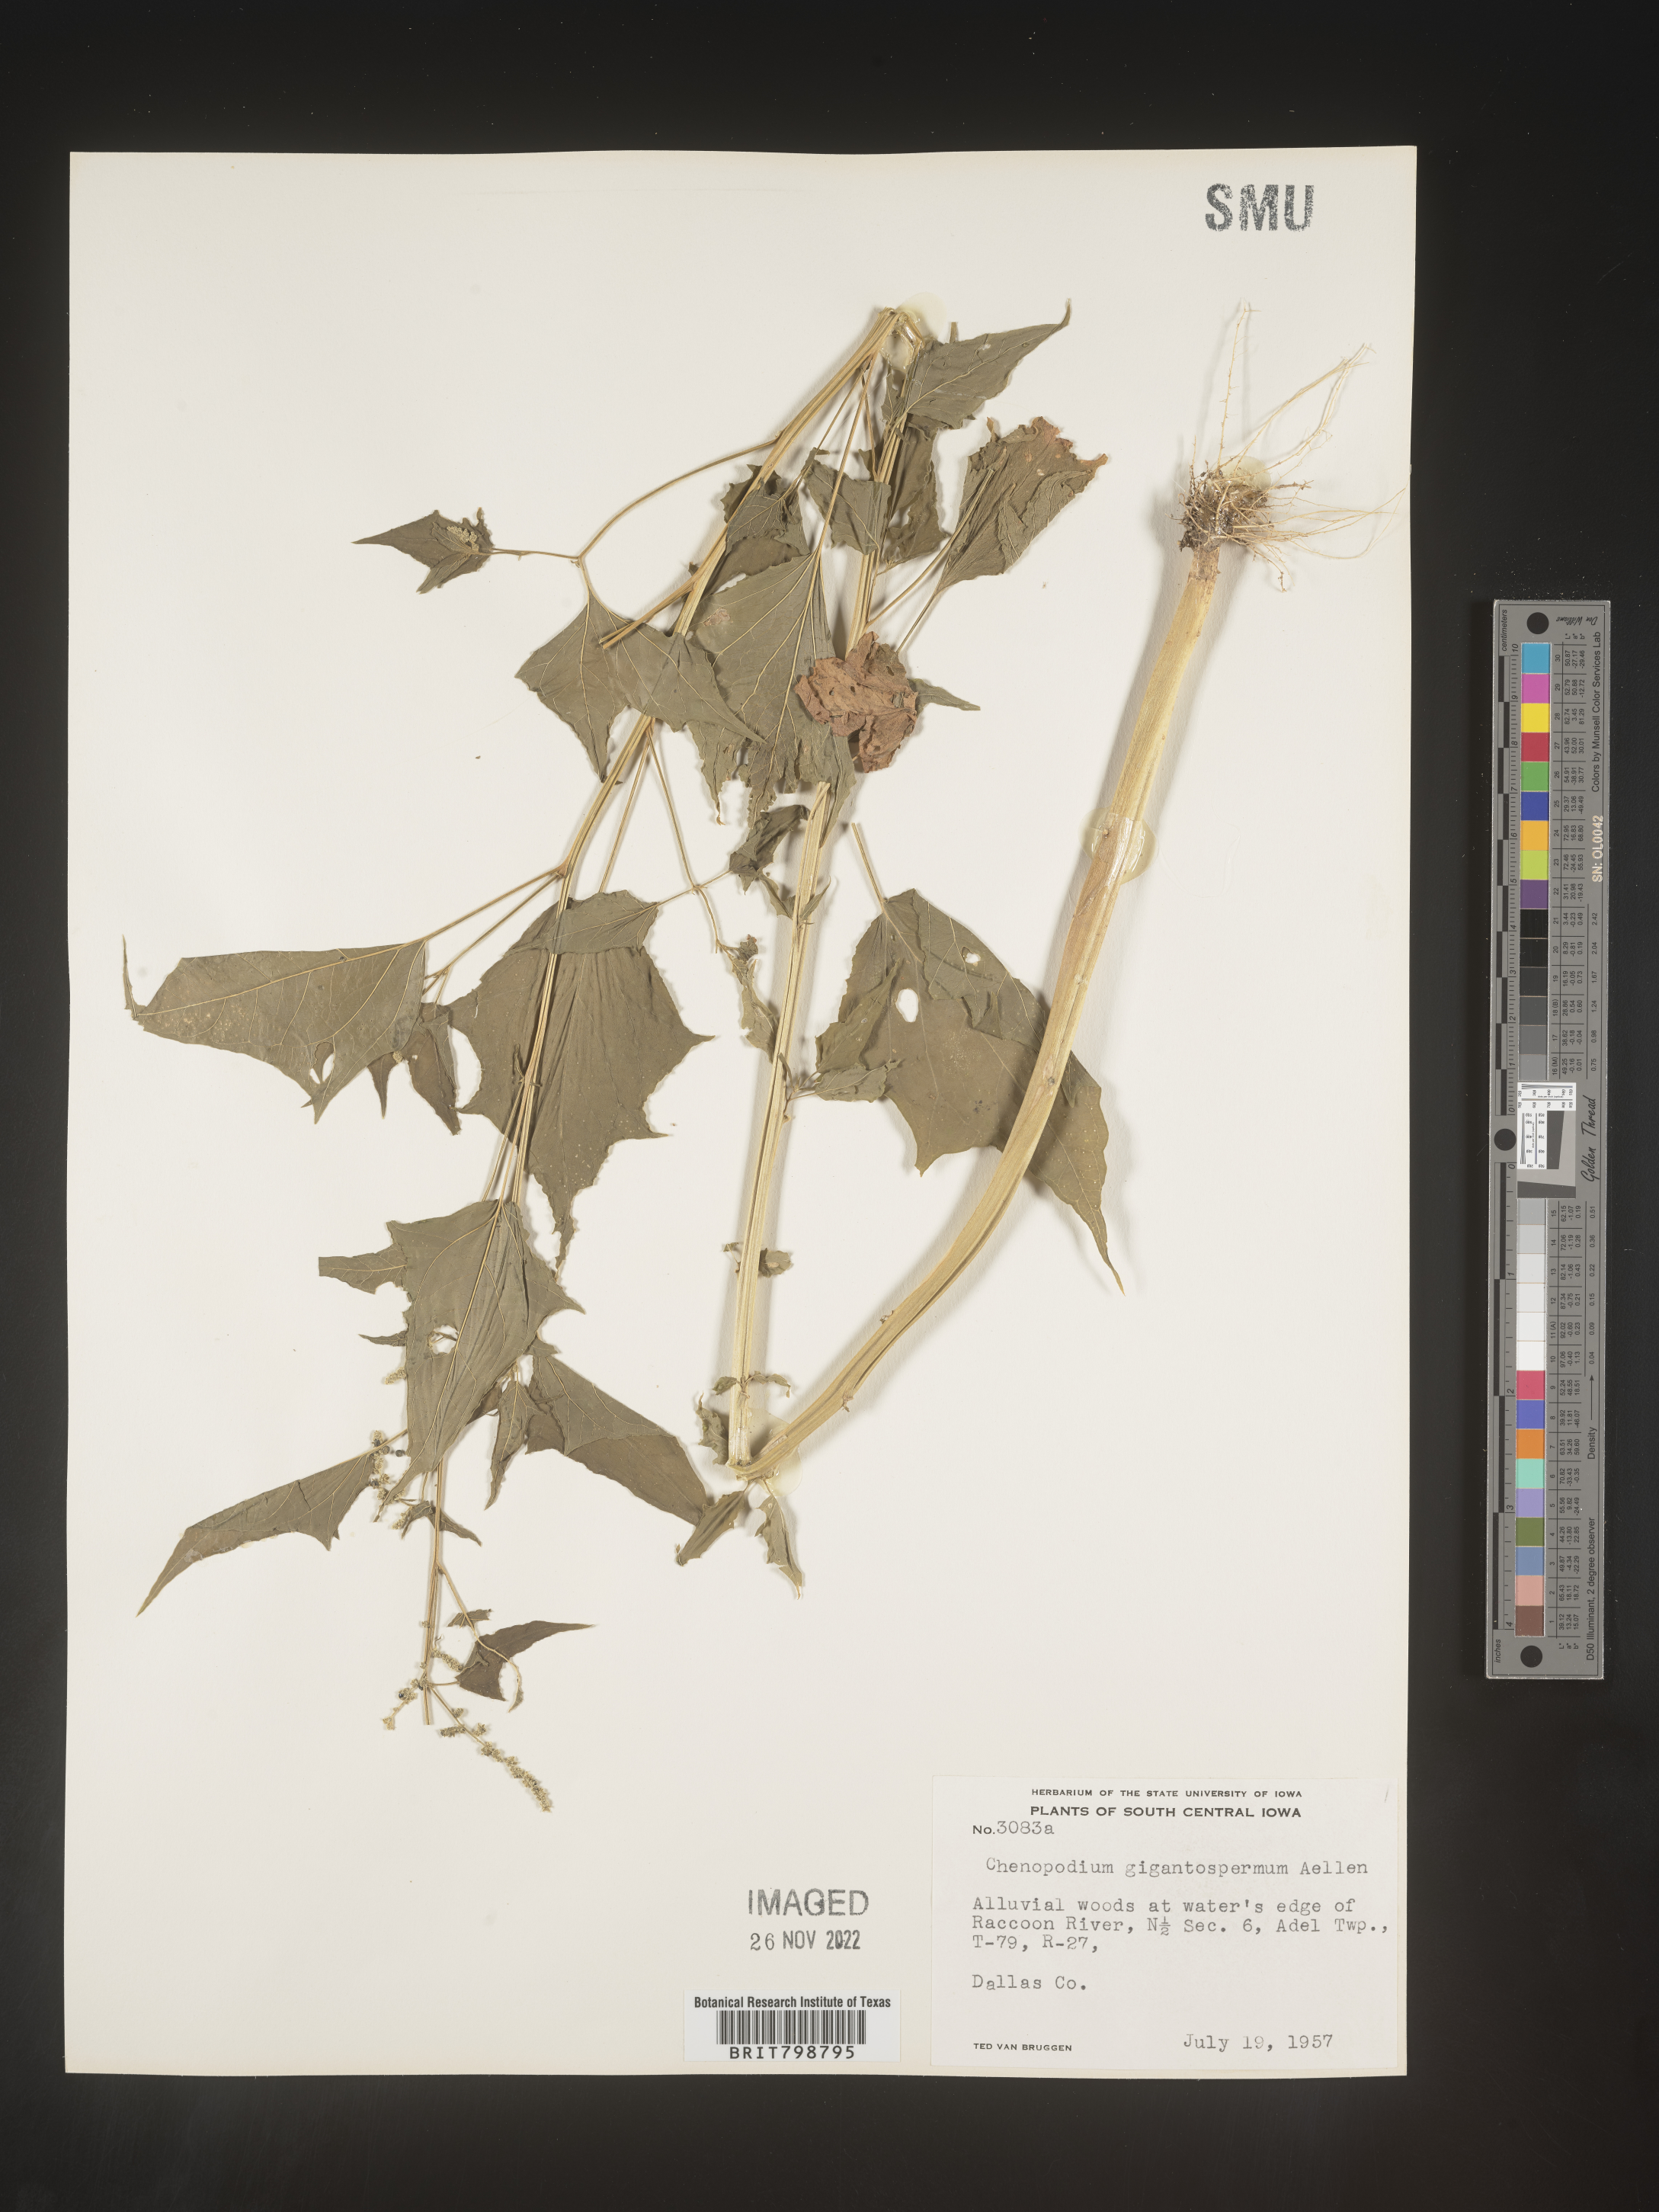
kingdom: Plantae
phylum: Tracheophyta
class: Magnoliopsida
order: Caryophyllales
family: Amaranthaceae
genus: Chenopodiastrum
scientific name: Chenopodiastrum simplex
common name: Large-seed goosefoot
